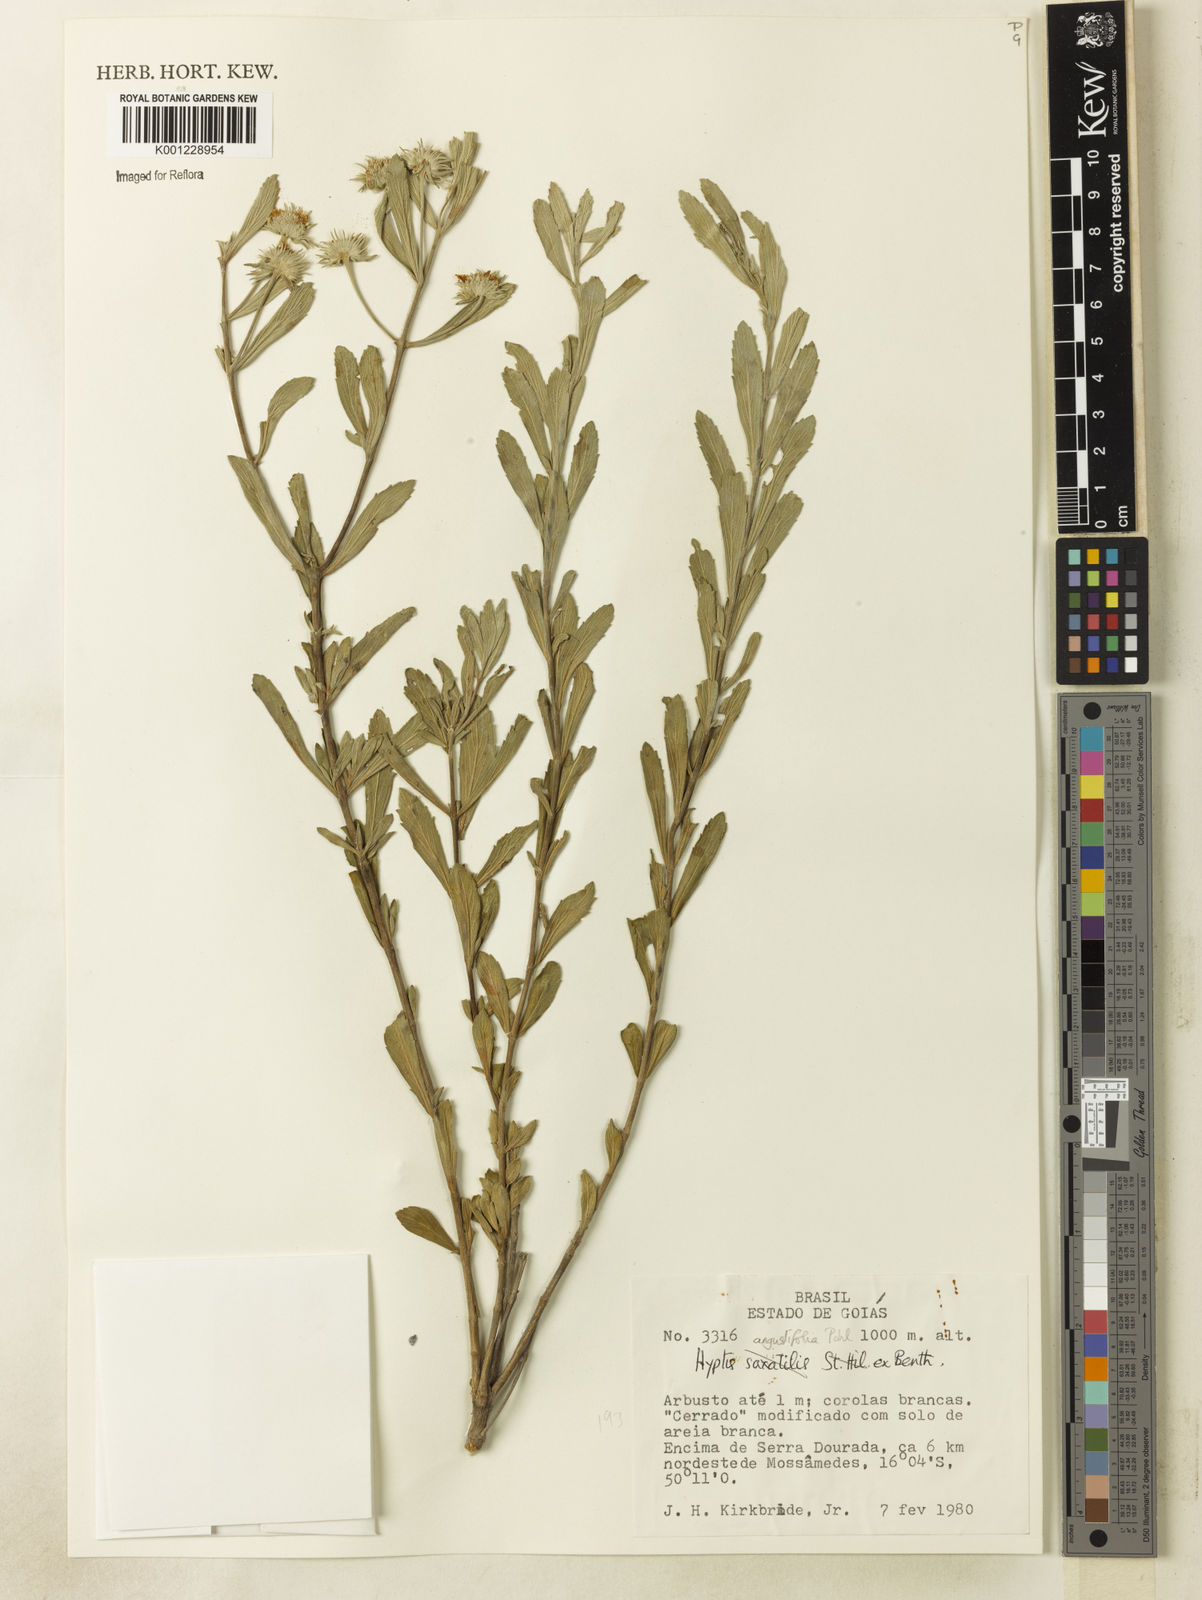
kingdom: Plantae
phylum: Tracheophyta
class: Magnoliopsida
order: Lamiales
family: Lamiaceae
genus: Hyptis
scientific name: Hyptis angustifolia
